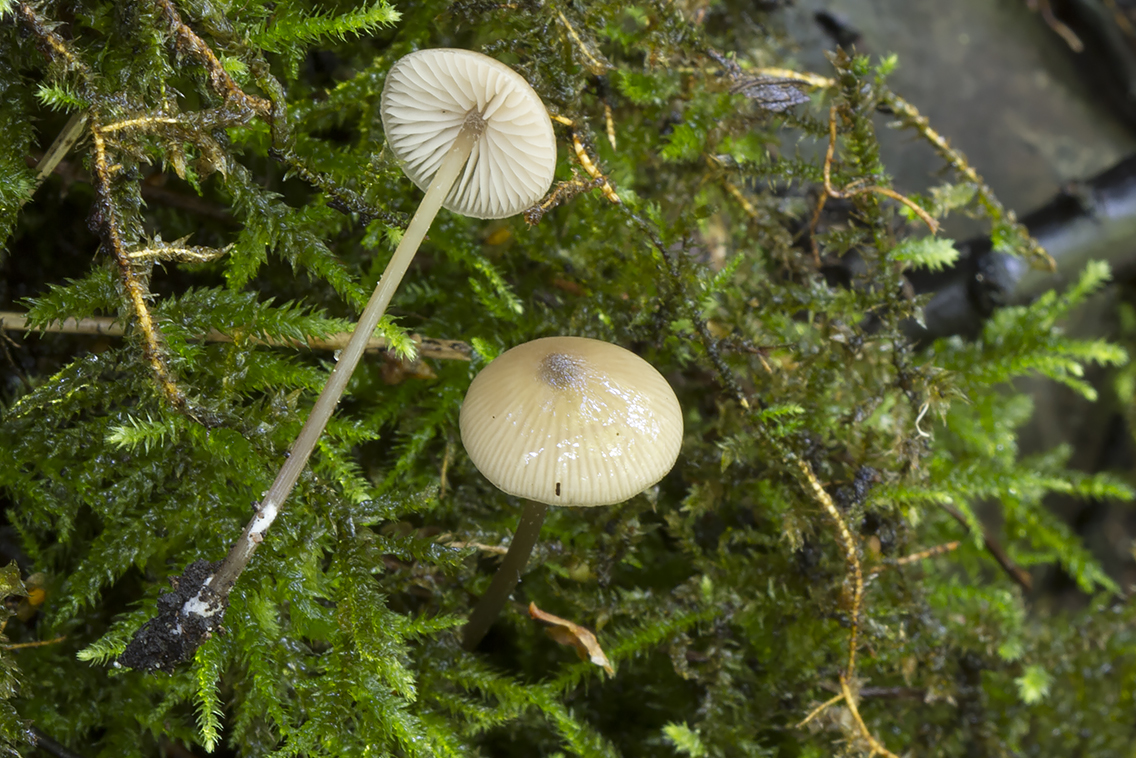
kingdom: Fungi
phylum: Basidiomycota
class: Agaricomycetes
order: Agaricales
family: Entolomataceae
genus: Entoloma
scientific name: Entoloma hebes
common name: krat-rødblad
